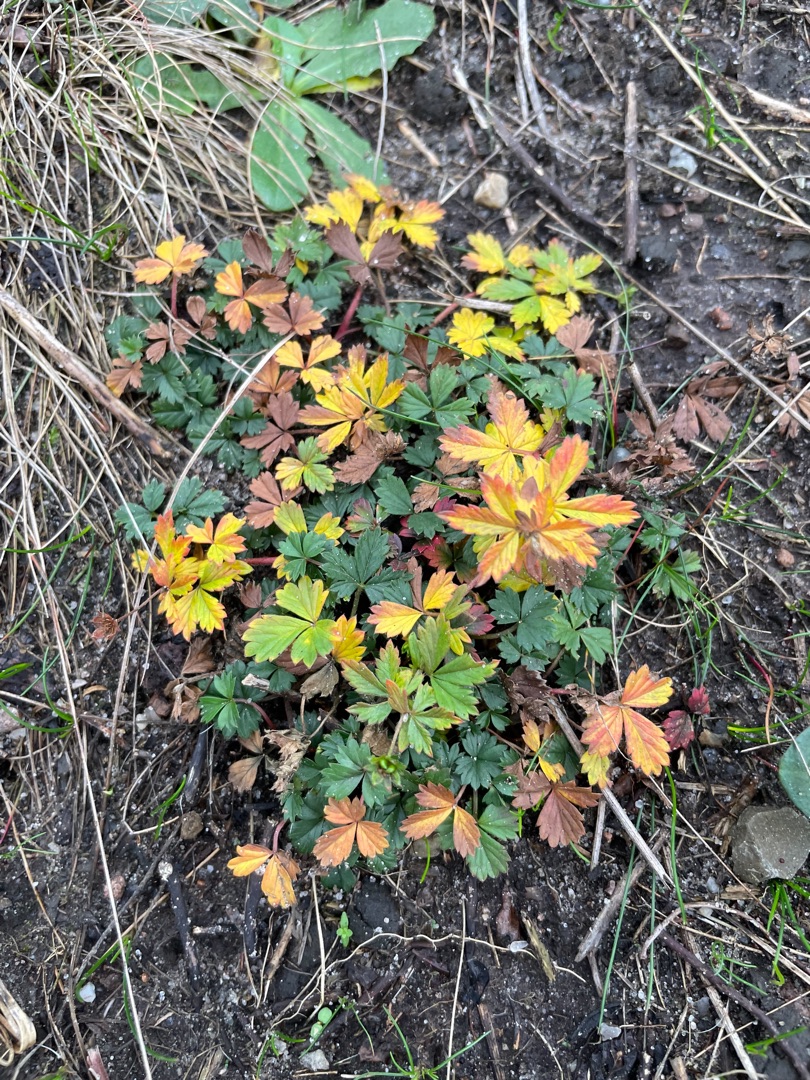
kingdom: Plantae
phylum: Tracheophyta
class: Magnoliopsida
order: Rosales
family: Rosaceae
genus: Potentilla
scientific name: Potentilla erecta
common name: Tormentil
